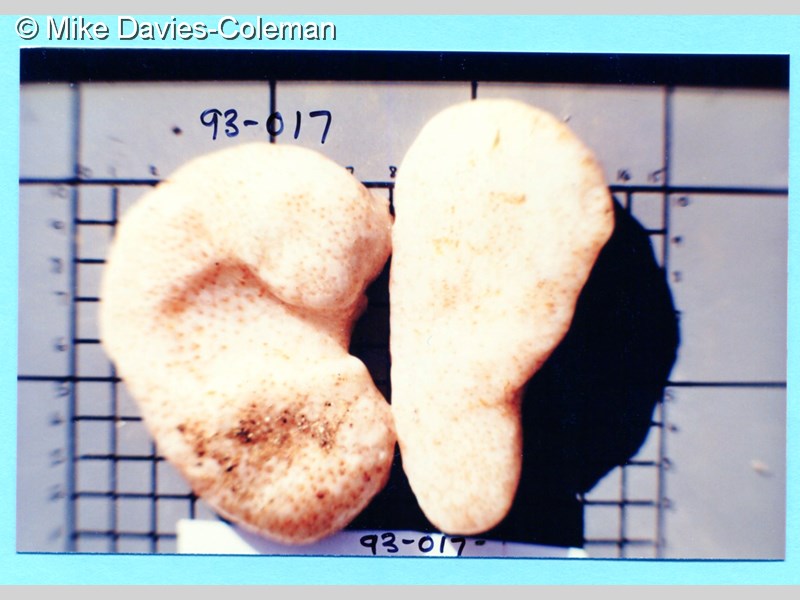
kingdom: Animalia
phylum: Chordata
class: Ascidiacea
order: Stolidobranchia
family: Styelidae
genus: Gynandrocarpa
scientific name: Gynandrocarpa placenta
